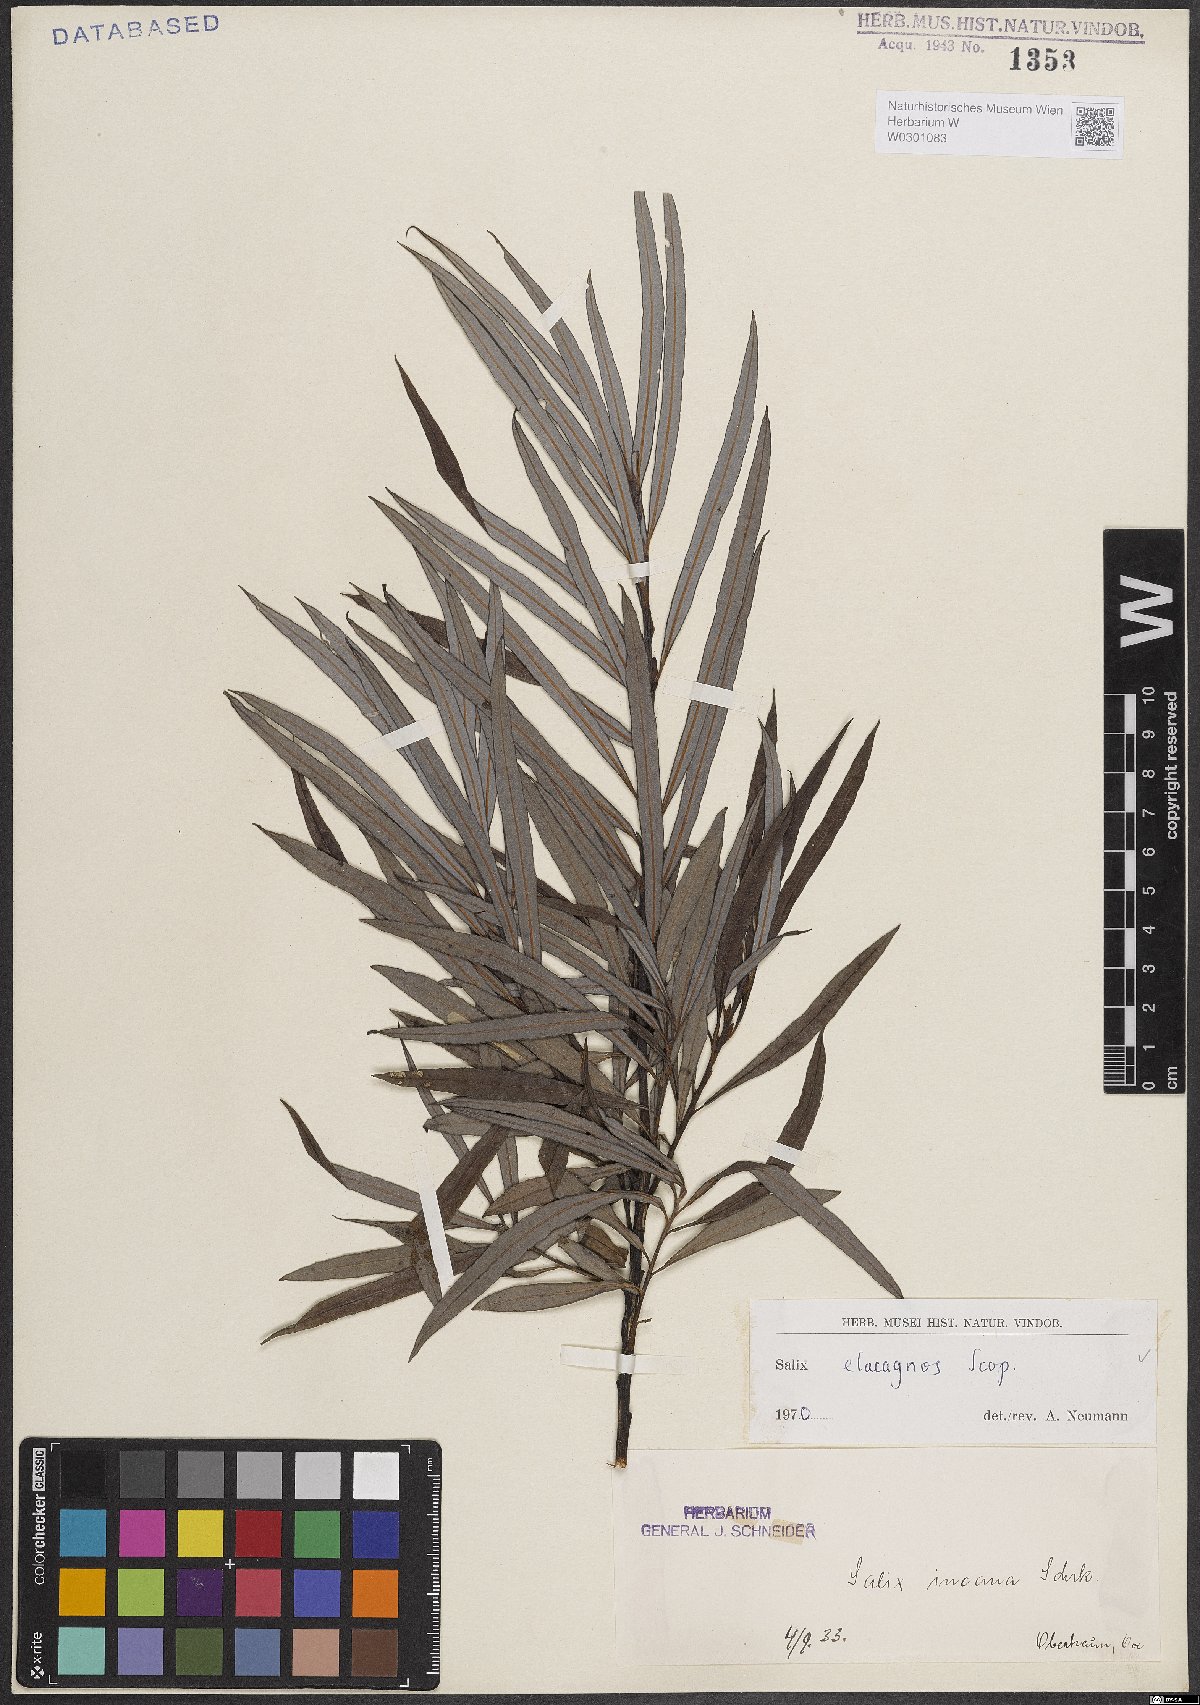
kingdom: Plantae
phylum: Tracheophyta
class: Magnoliopsida
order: Malpighiales
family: Salicaceae
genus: Salix
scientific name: Salix eleagnos
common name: Elaeagnus willow
